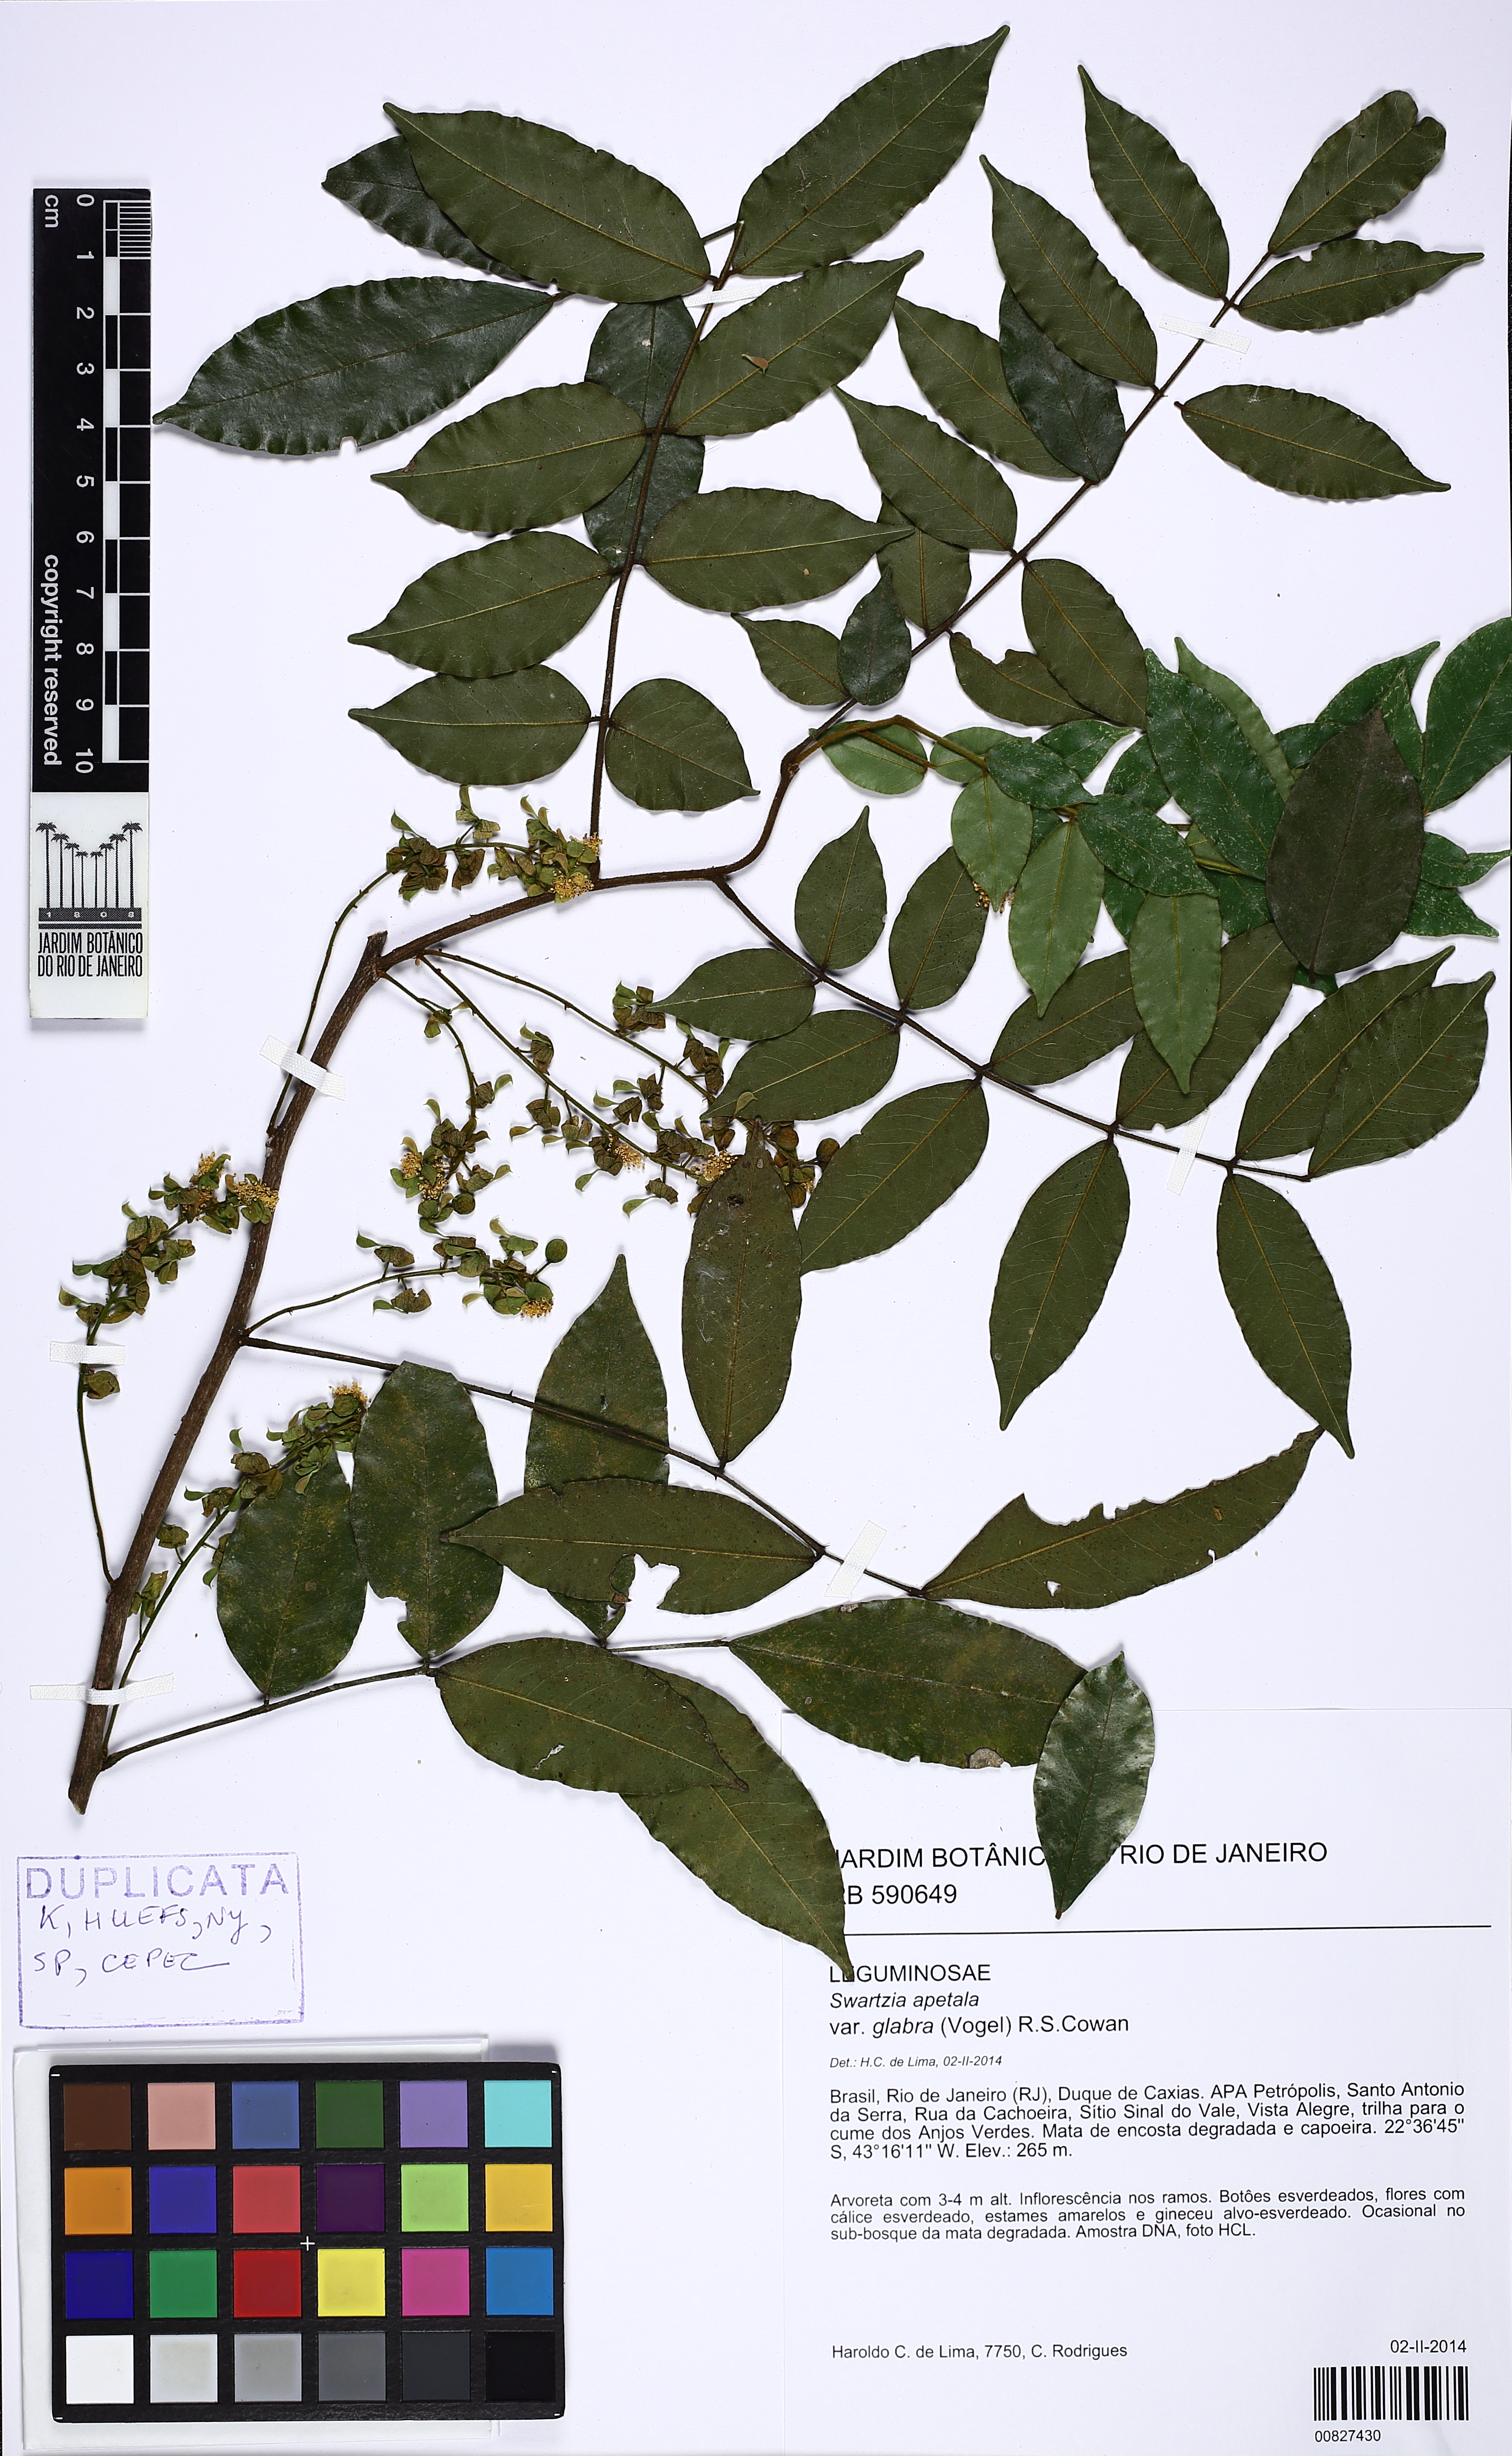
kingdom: Plantae
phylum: Tracheophyta
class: Magnoliopsida
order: Fabales
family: Fabaceae
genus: Swartzia
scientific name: Swartzia apetala
